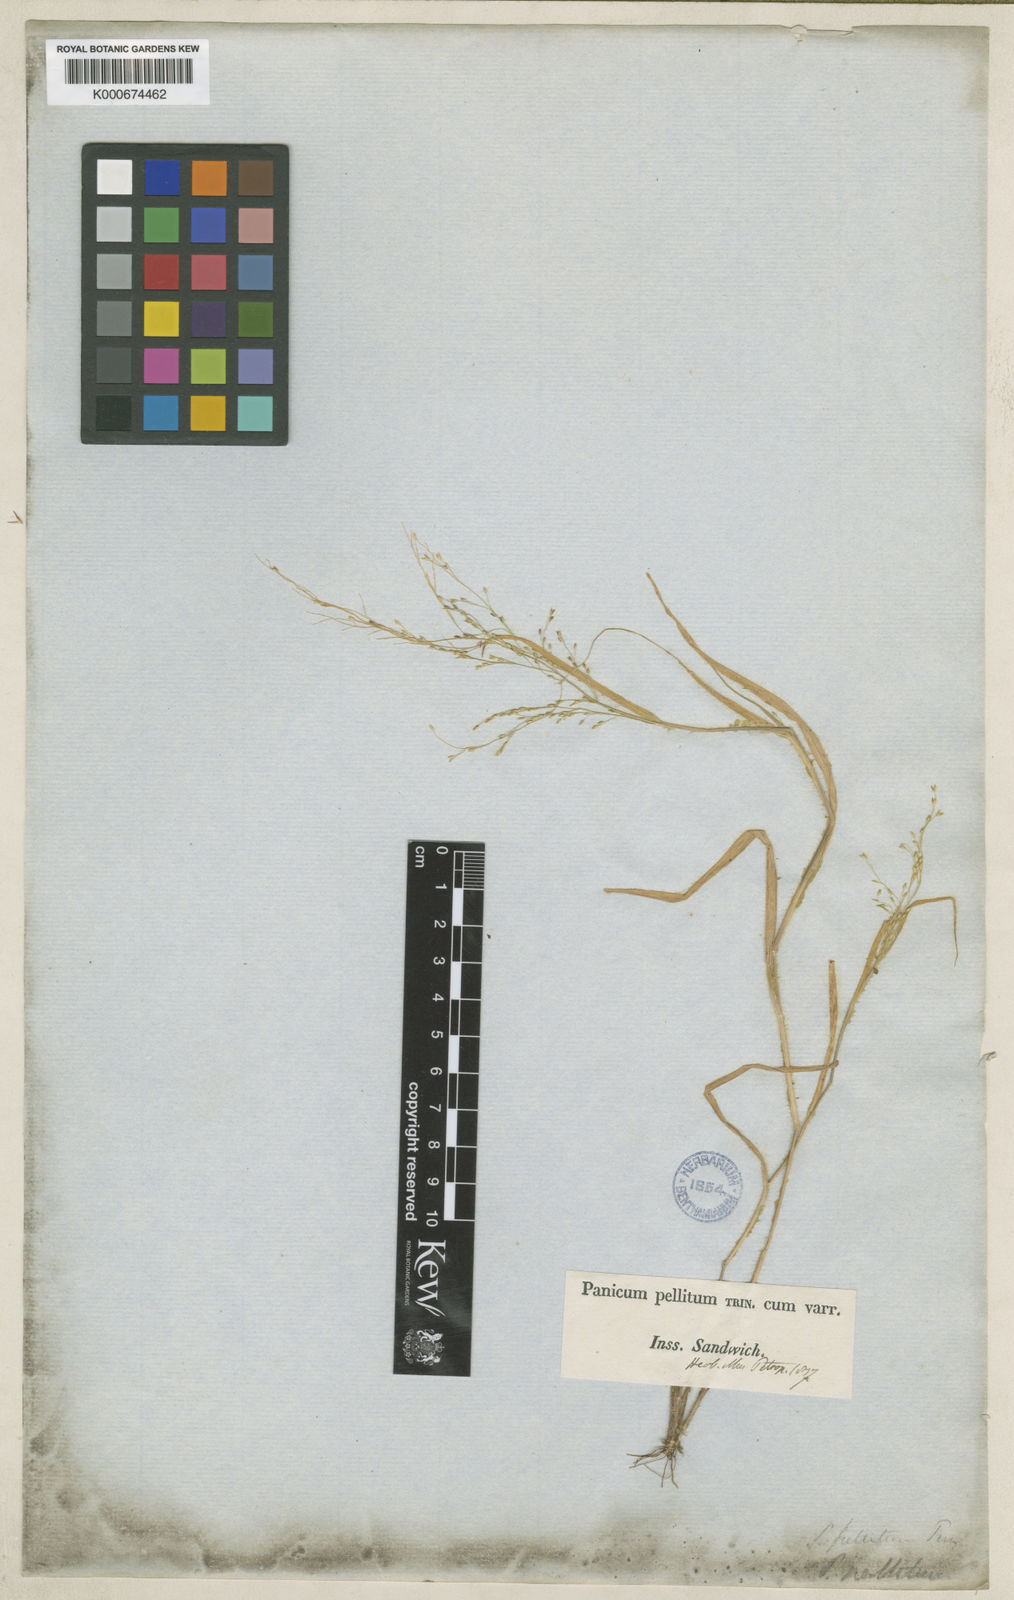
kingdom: Plantae
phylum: Tracheophyta
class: Liliopsida
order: Poales
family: Poaceae
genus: Panicum
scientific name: Panicum pellitum
